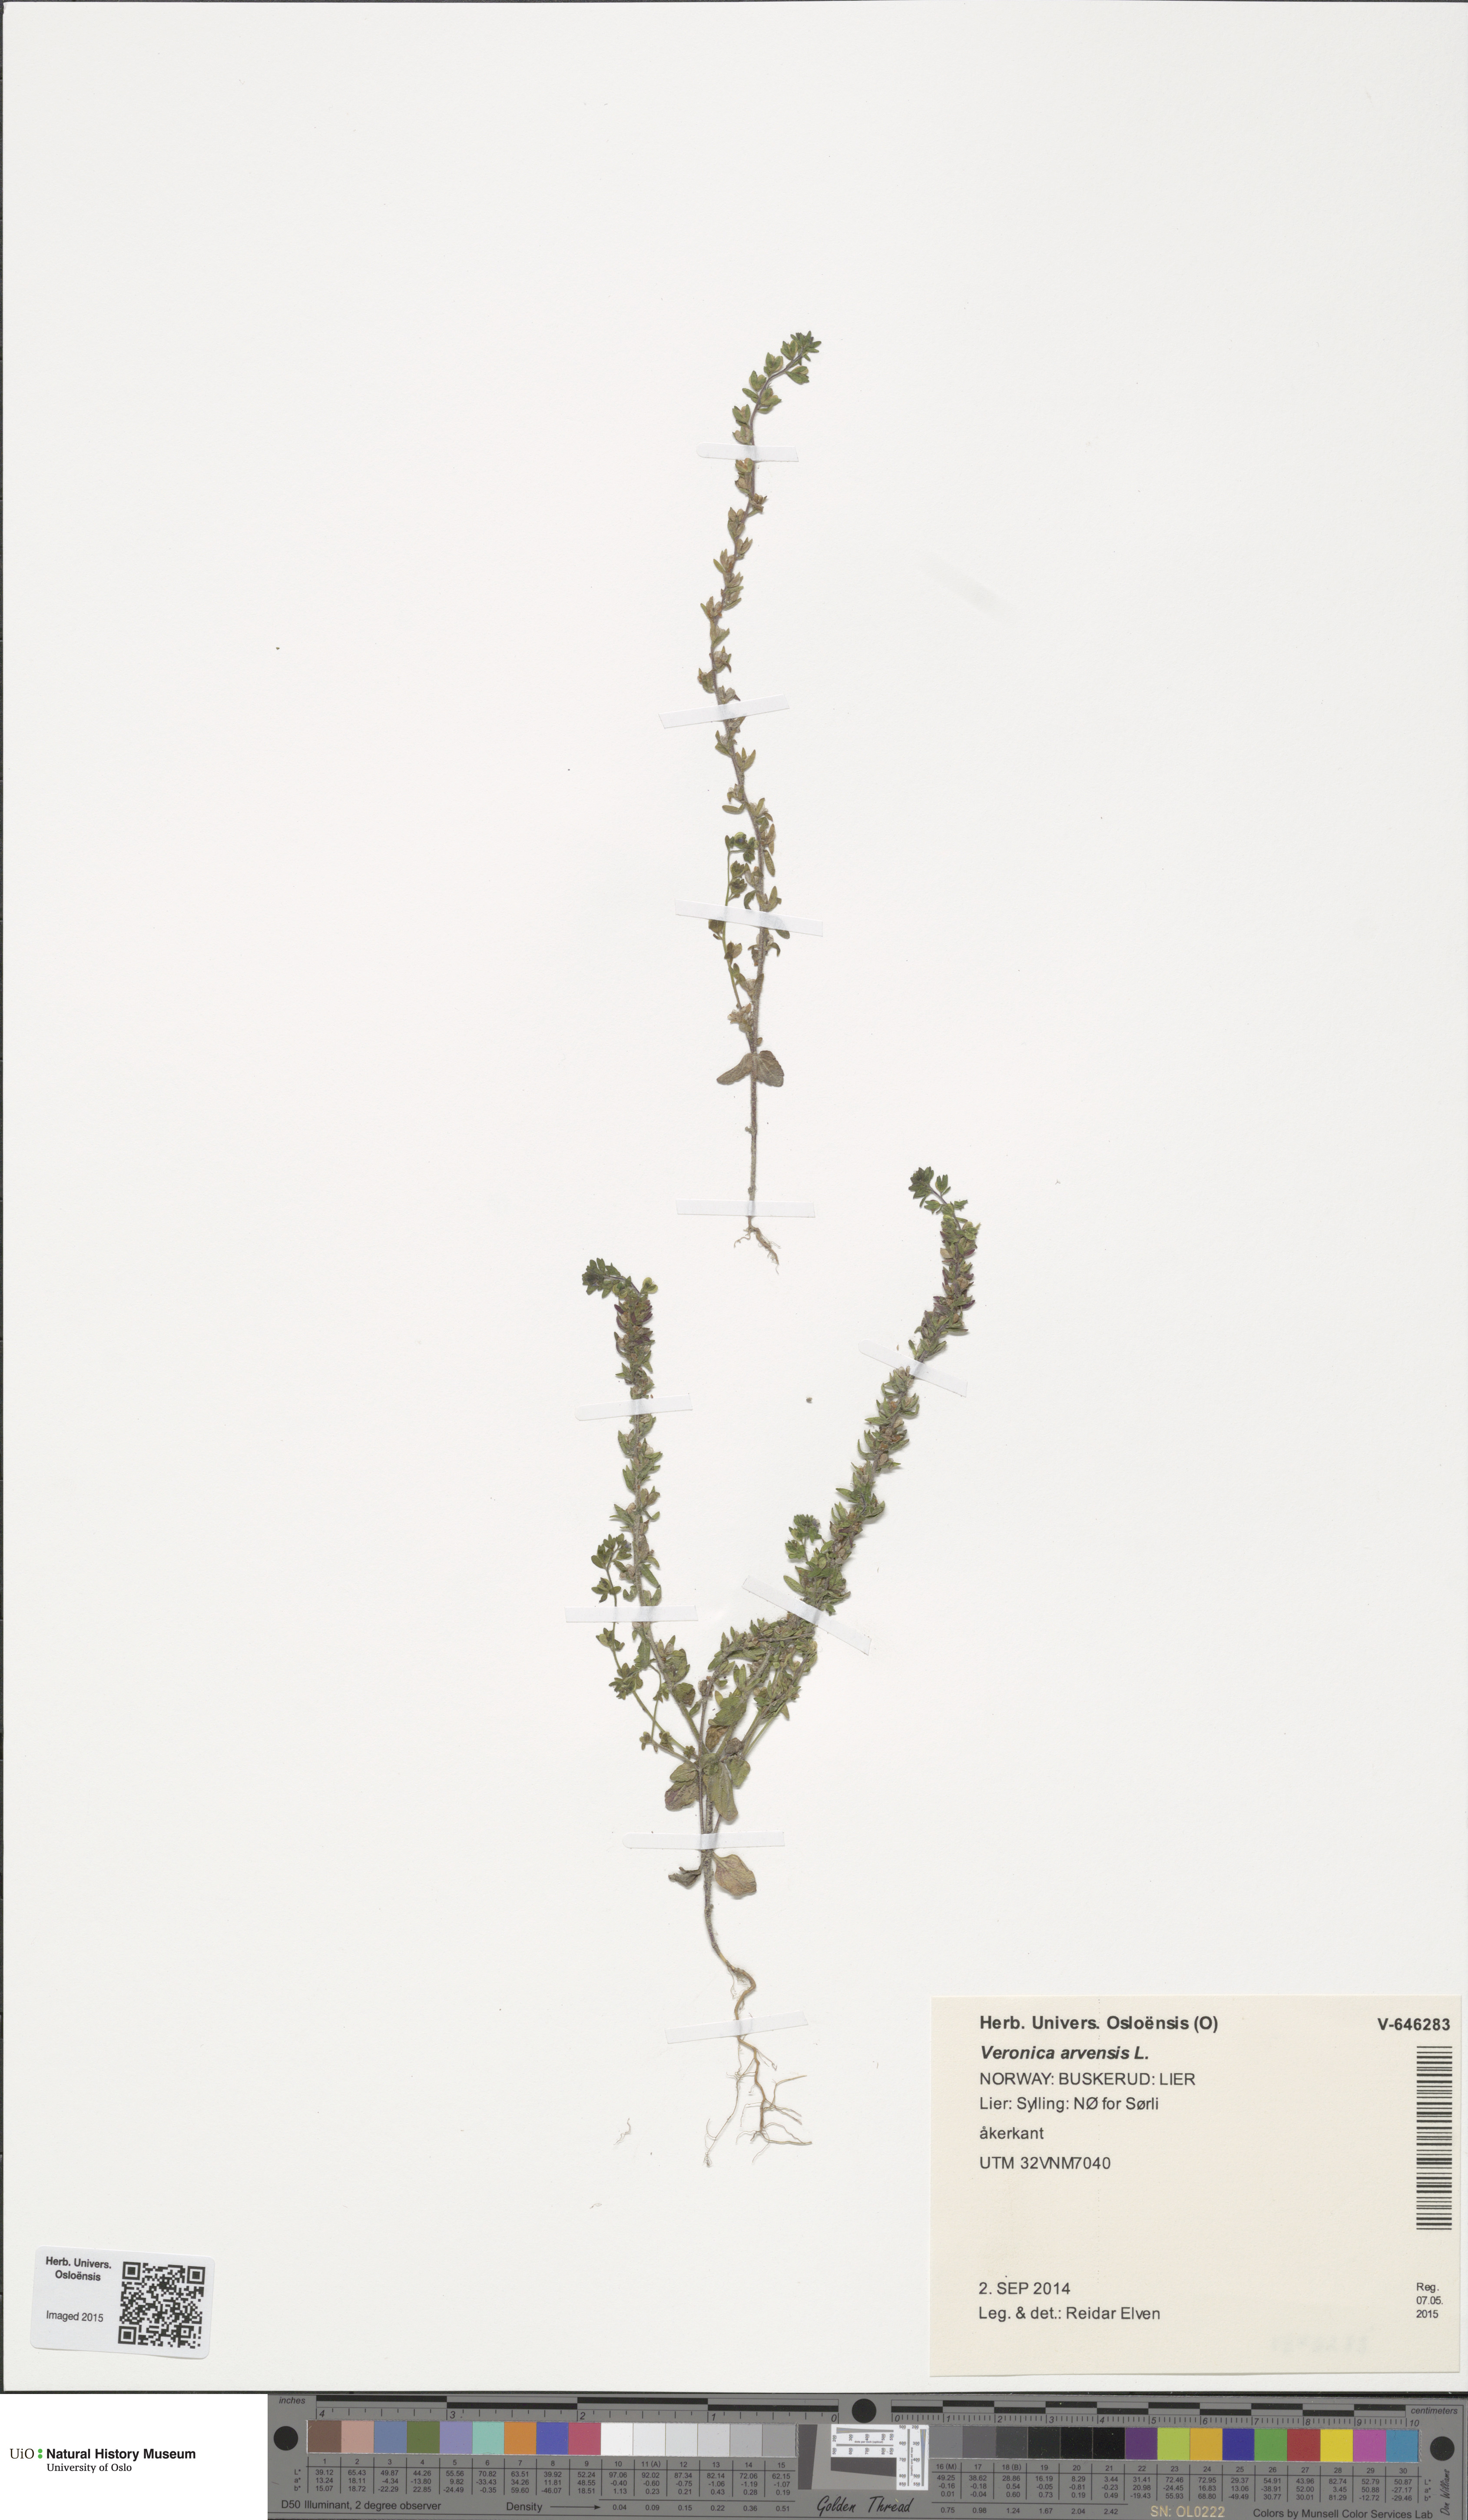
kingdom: Plantae
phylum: Tracheophyta
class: Magnoliopsida
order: Lamiales
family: Plantaginaceae
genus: Veronica
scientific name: Veronica arvensis
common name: Corn speedwell
